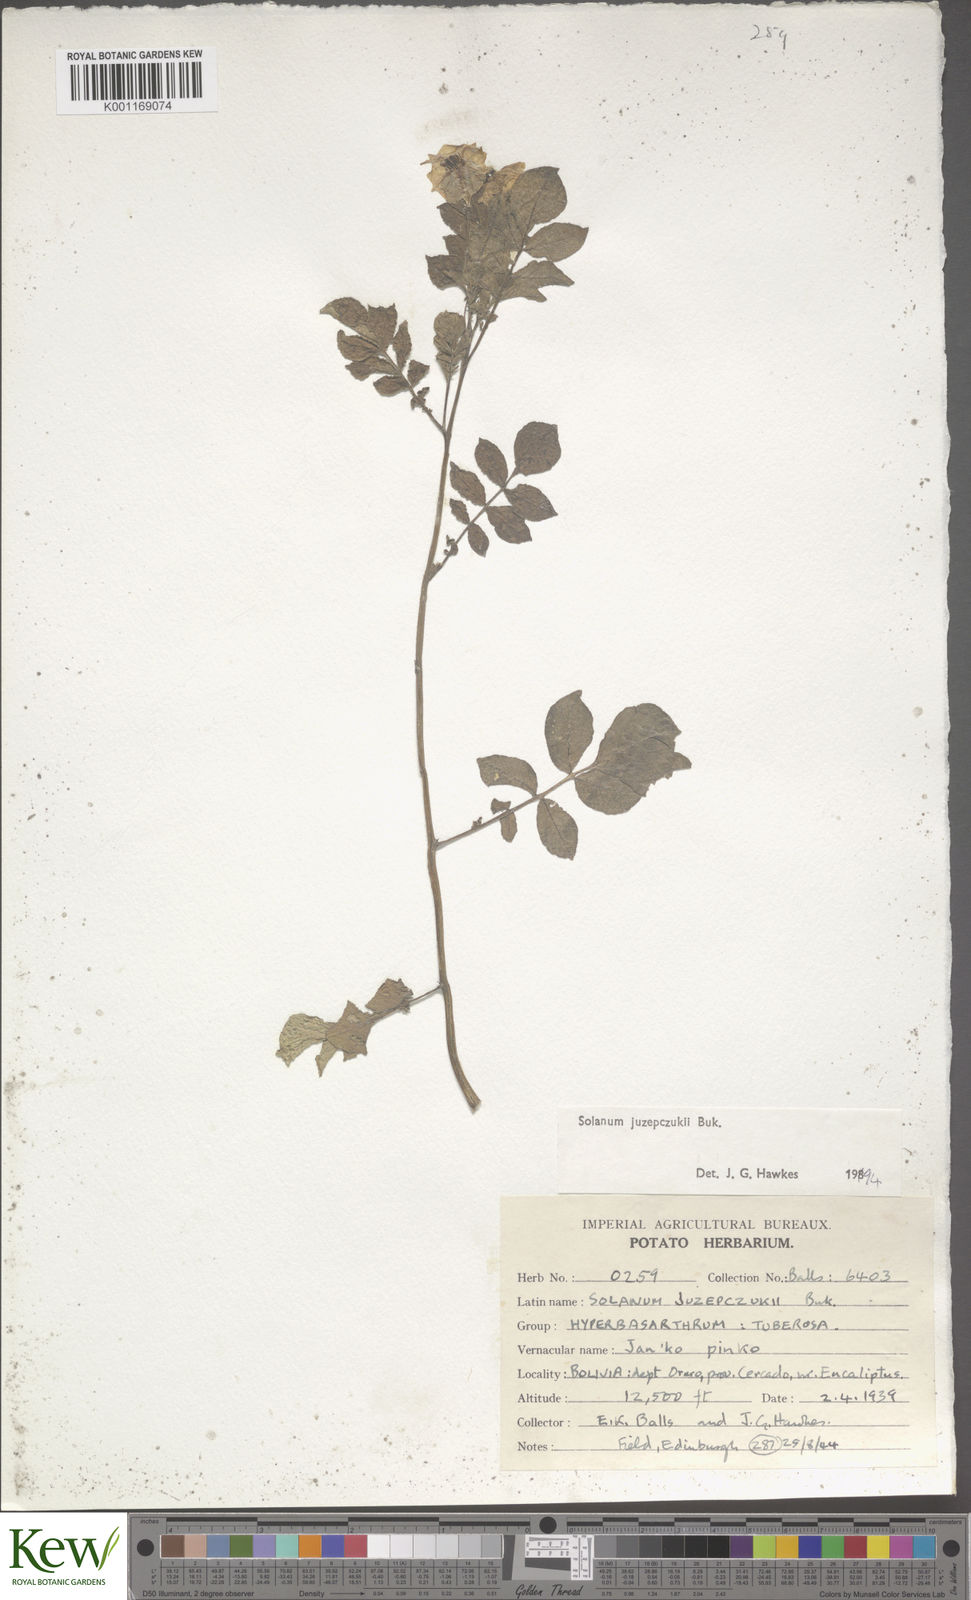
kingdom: Plantae
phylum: Tracheophyta
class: Magnoliopsida
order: Solanales
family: Solanaceae
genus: Solanum
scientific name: Solanum juzepczukii
